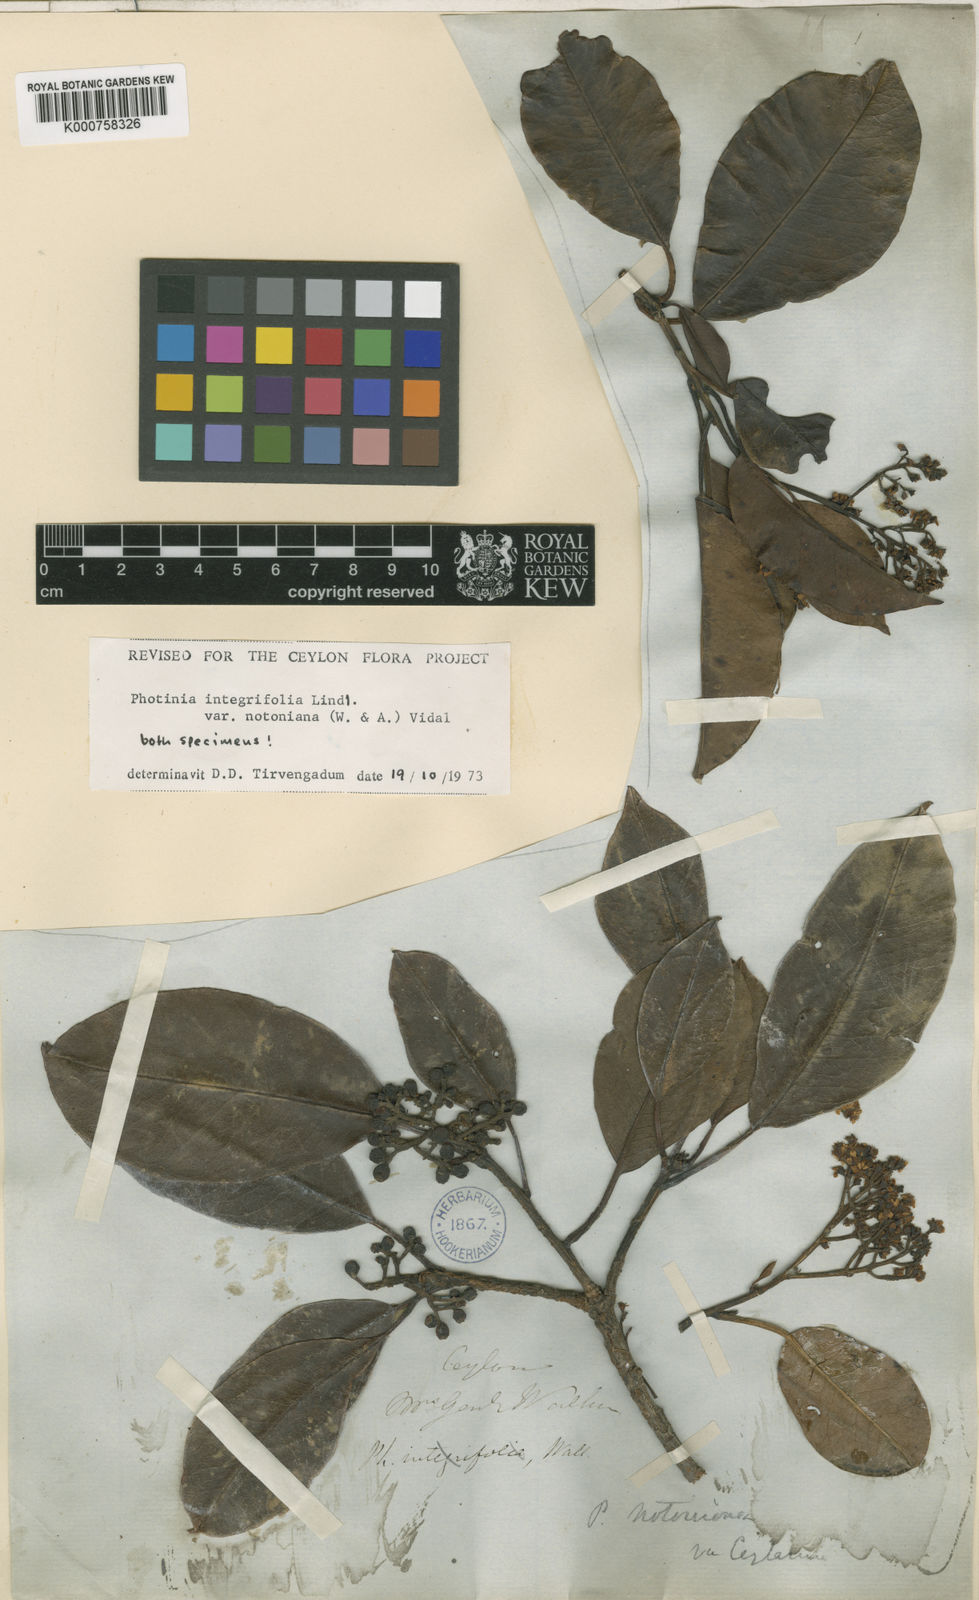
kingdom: Plantae
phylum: Tracheophyta
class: Magnoliopsida
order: Rosales
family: Rosaceae
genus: Photinia
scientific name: Photinia integrifolia
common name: Himalayan chokeberry
